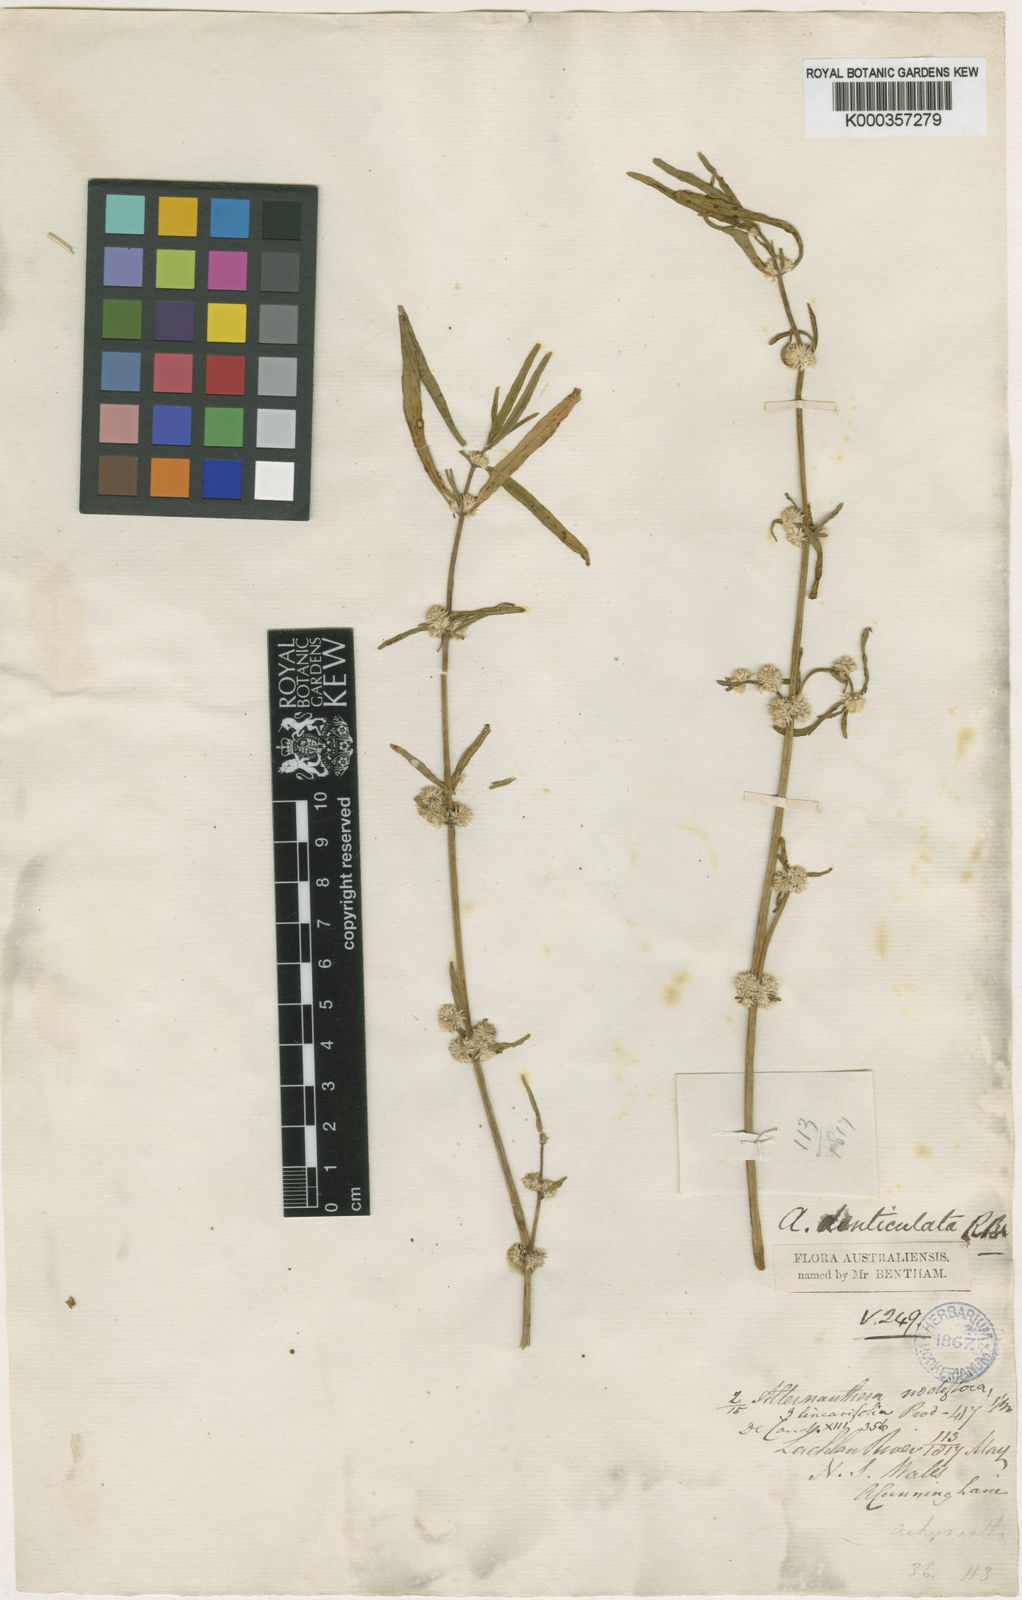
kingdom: Plantae
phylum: Tracheophyta
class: Magnoliopsida
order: Caryophyllales
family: Amaranthaceae
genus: Alternanthera
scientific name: Alternanthera denticulata
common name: Lesser joyweed
